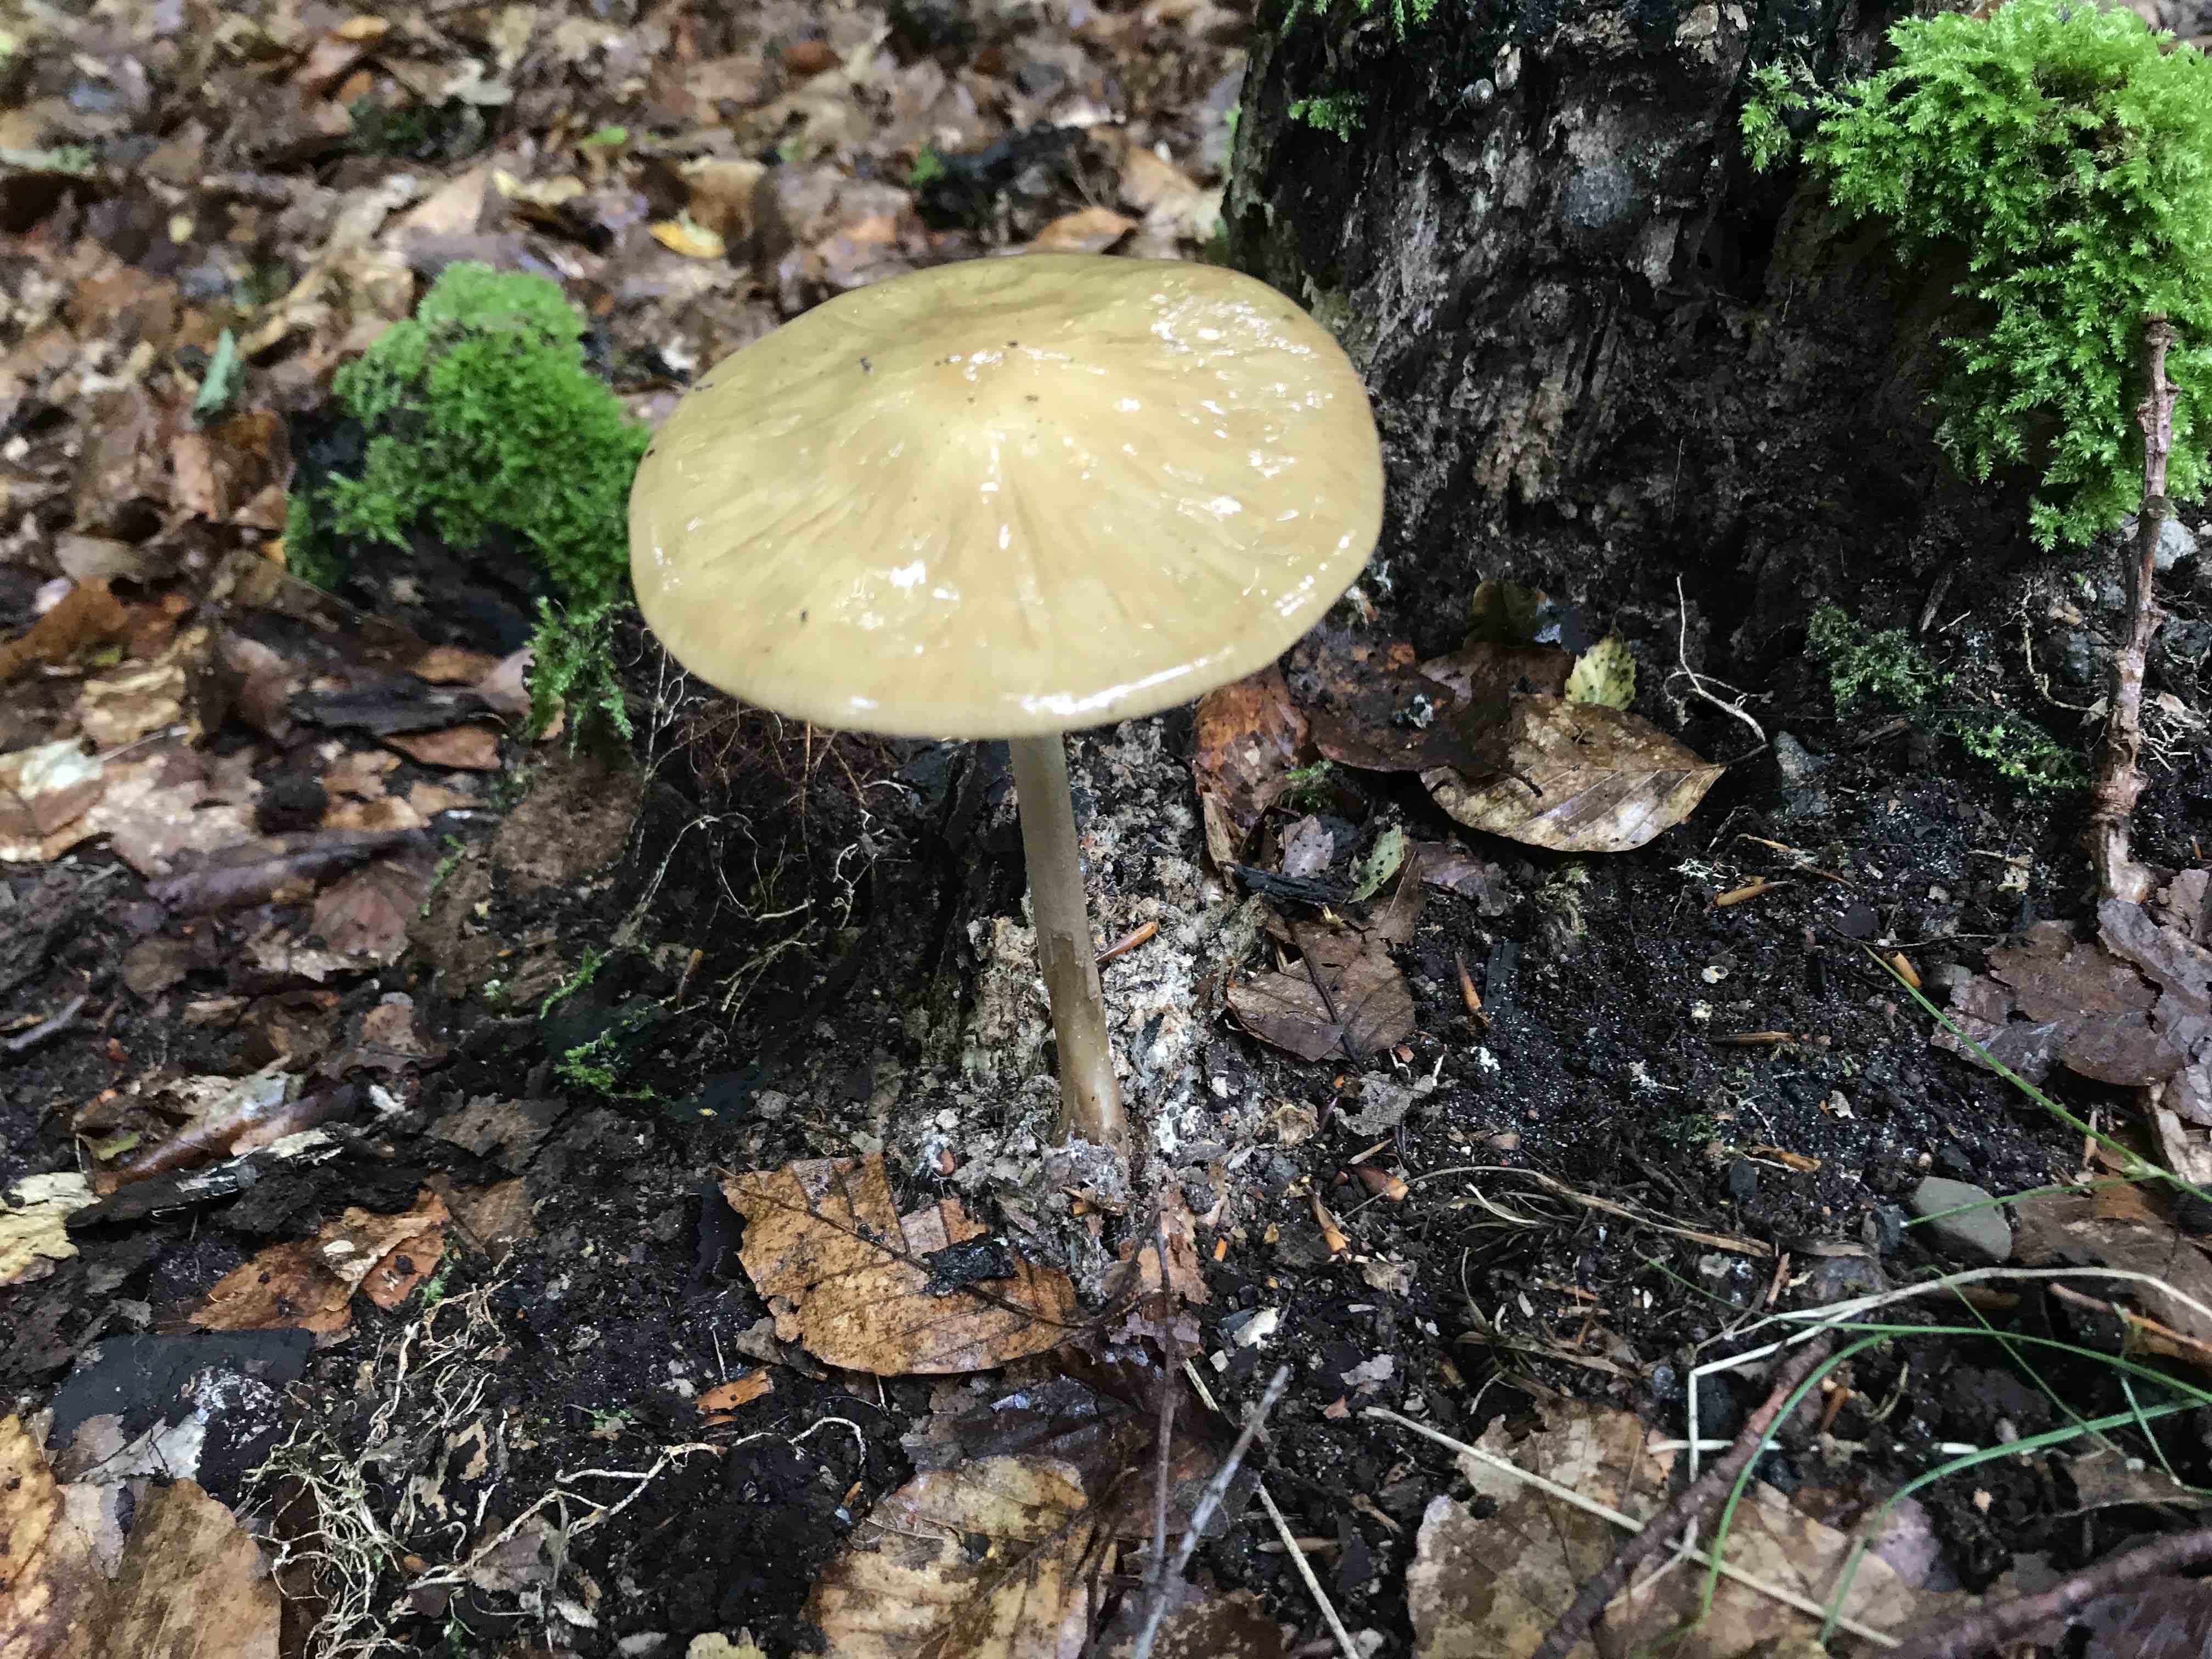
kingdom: Fungi
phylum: Basidiomycota
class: Agaricomycetes
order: Agaricales
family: Physalacriaceae
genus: Hymenopellis
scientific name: Hymenopellis radicata
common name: almindelig pælerodshat
